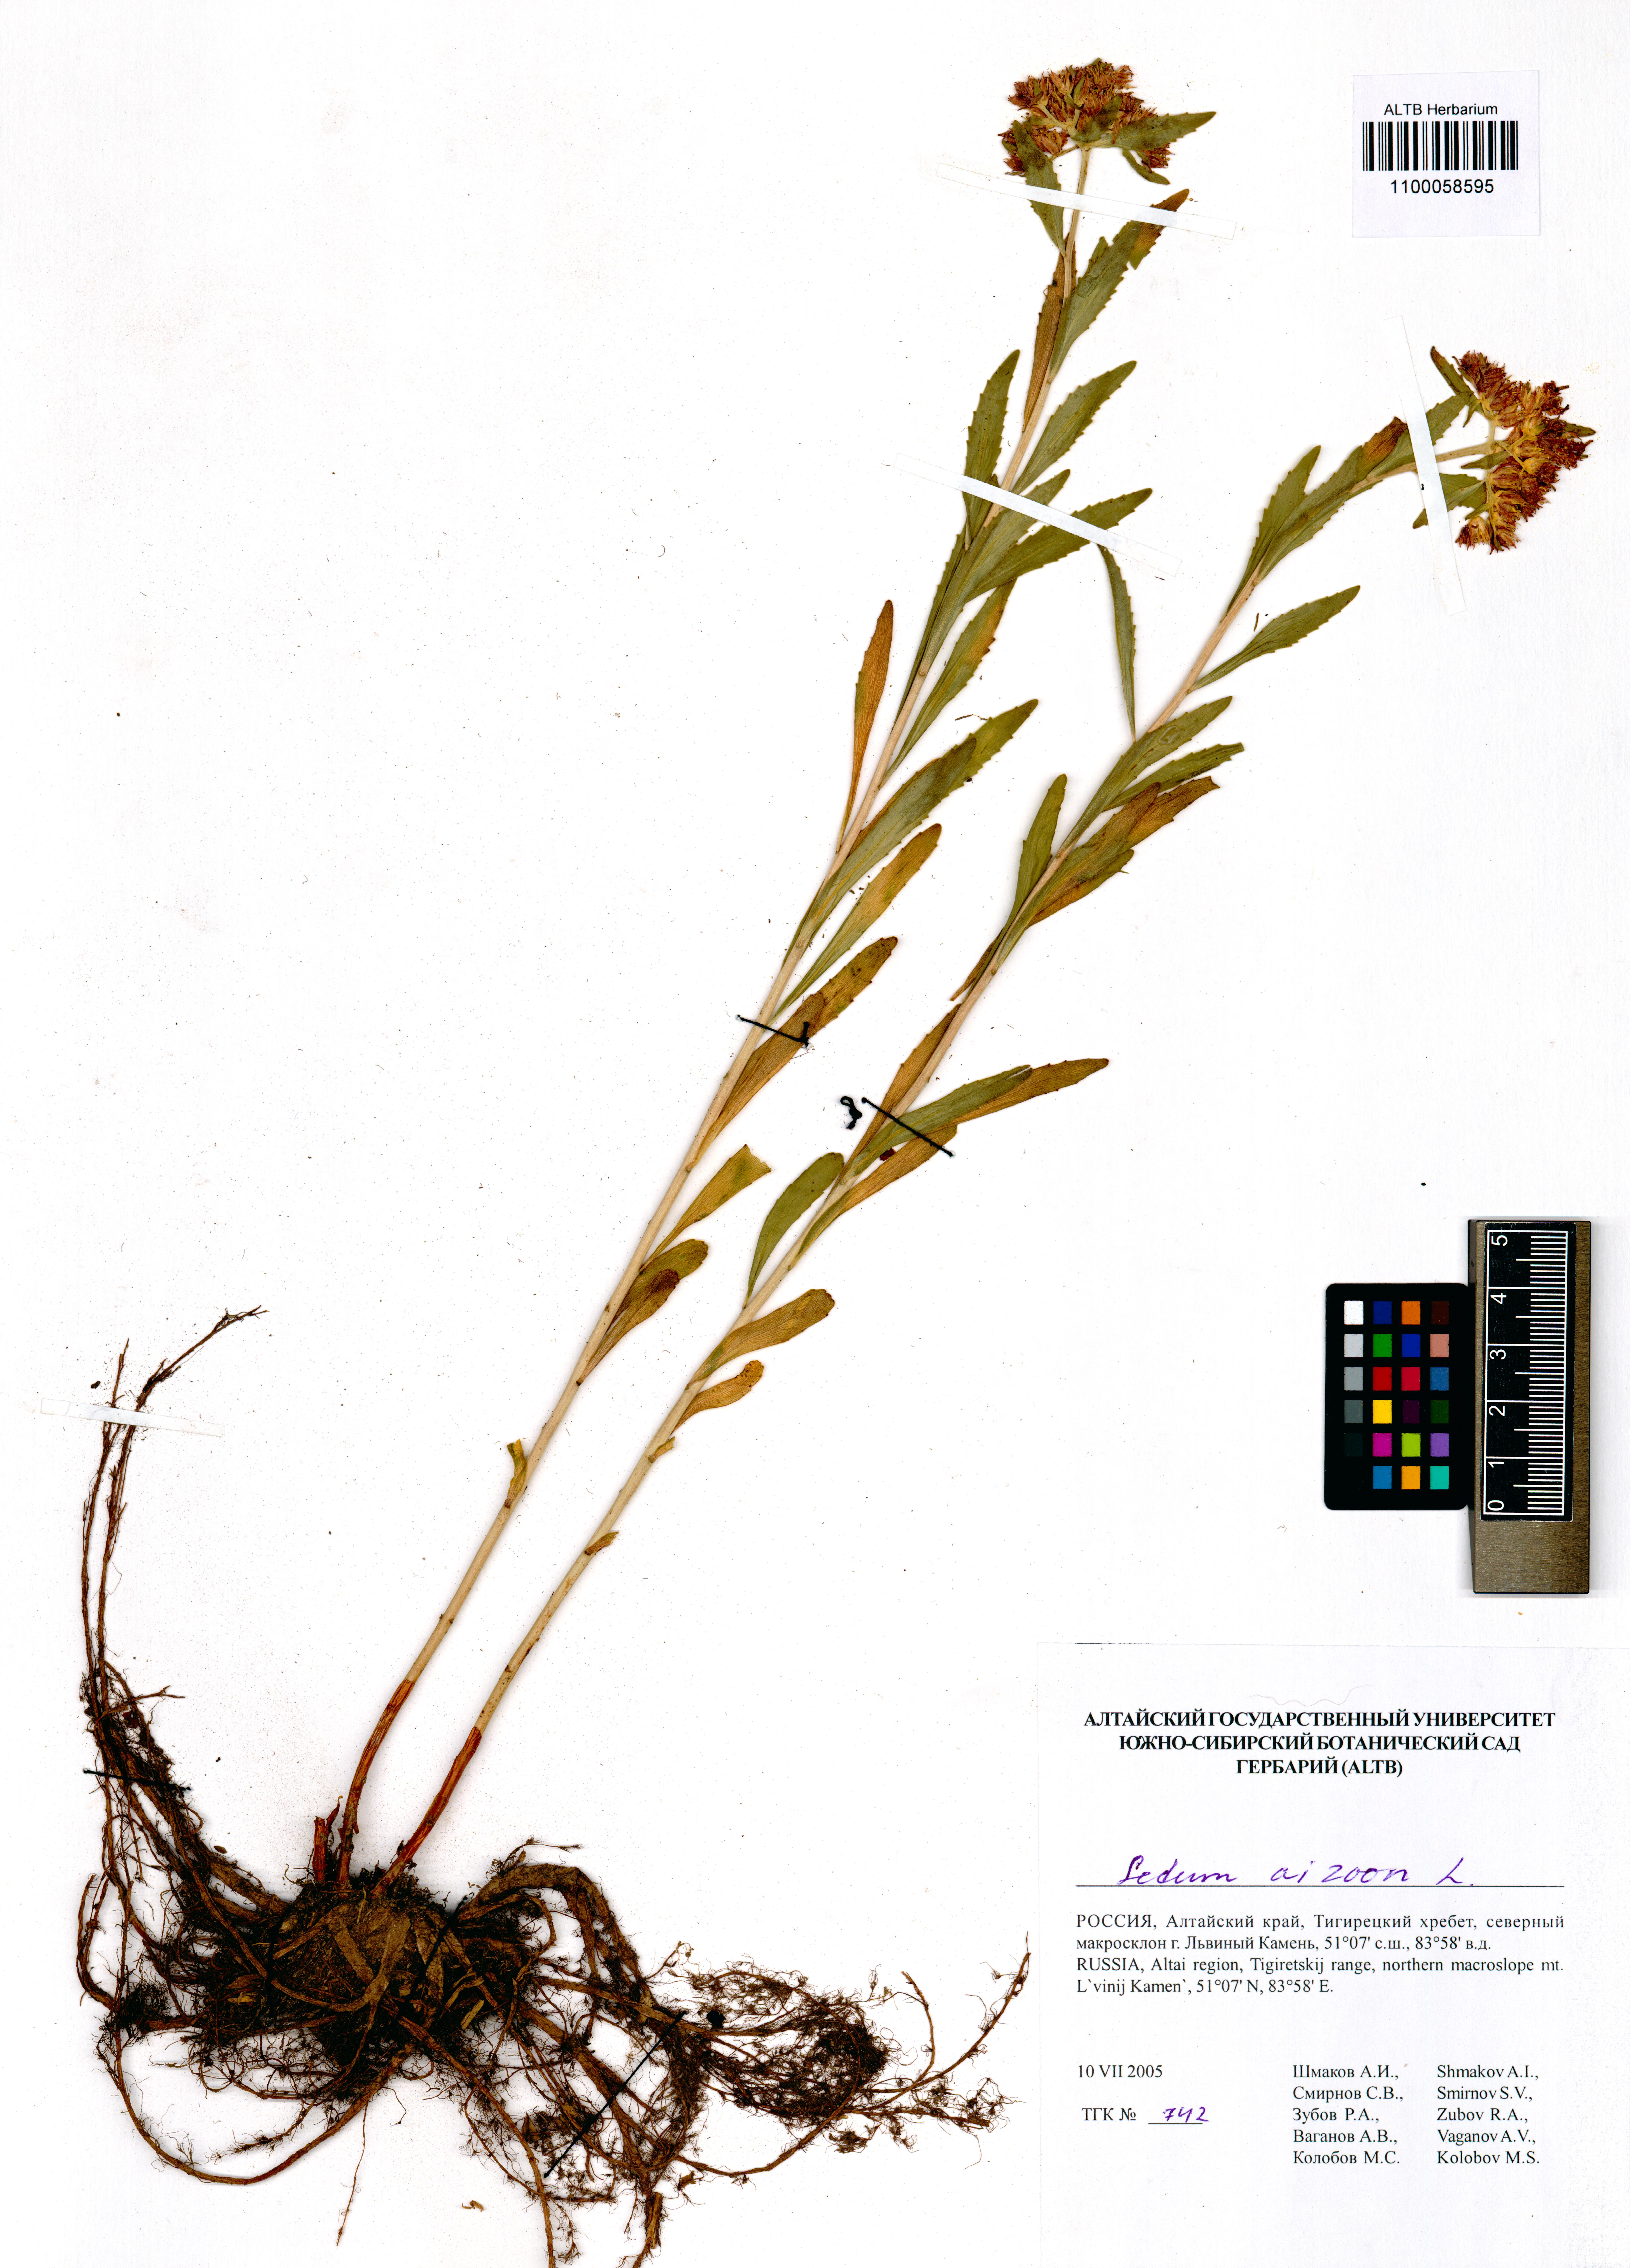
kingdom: Plantae
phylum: Tracheophyta
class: Magnoliopsida
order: Saxifragales
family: Crassulaceae
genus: Phedimus
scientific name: Phedimus aizoon
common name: Orpin aizoon
